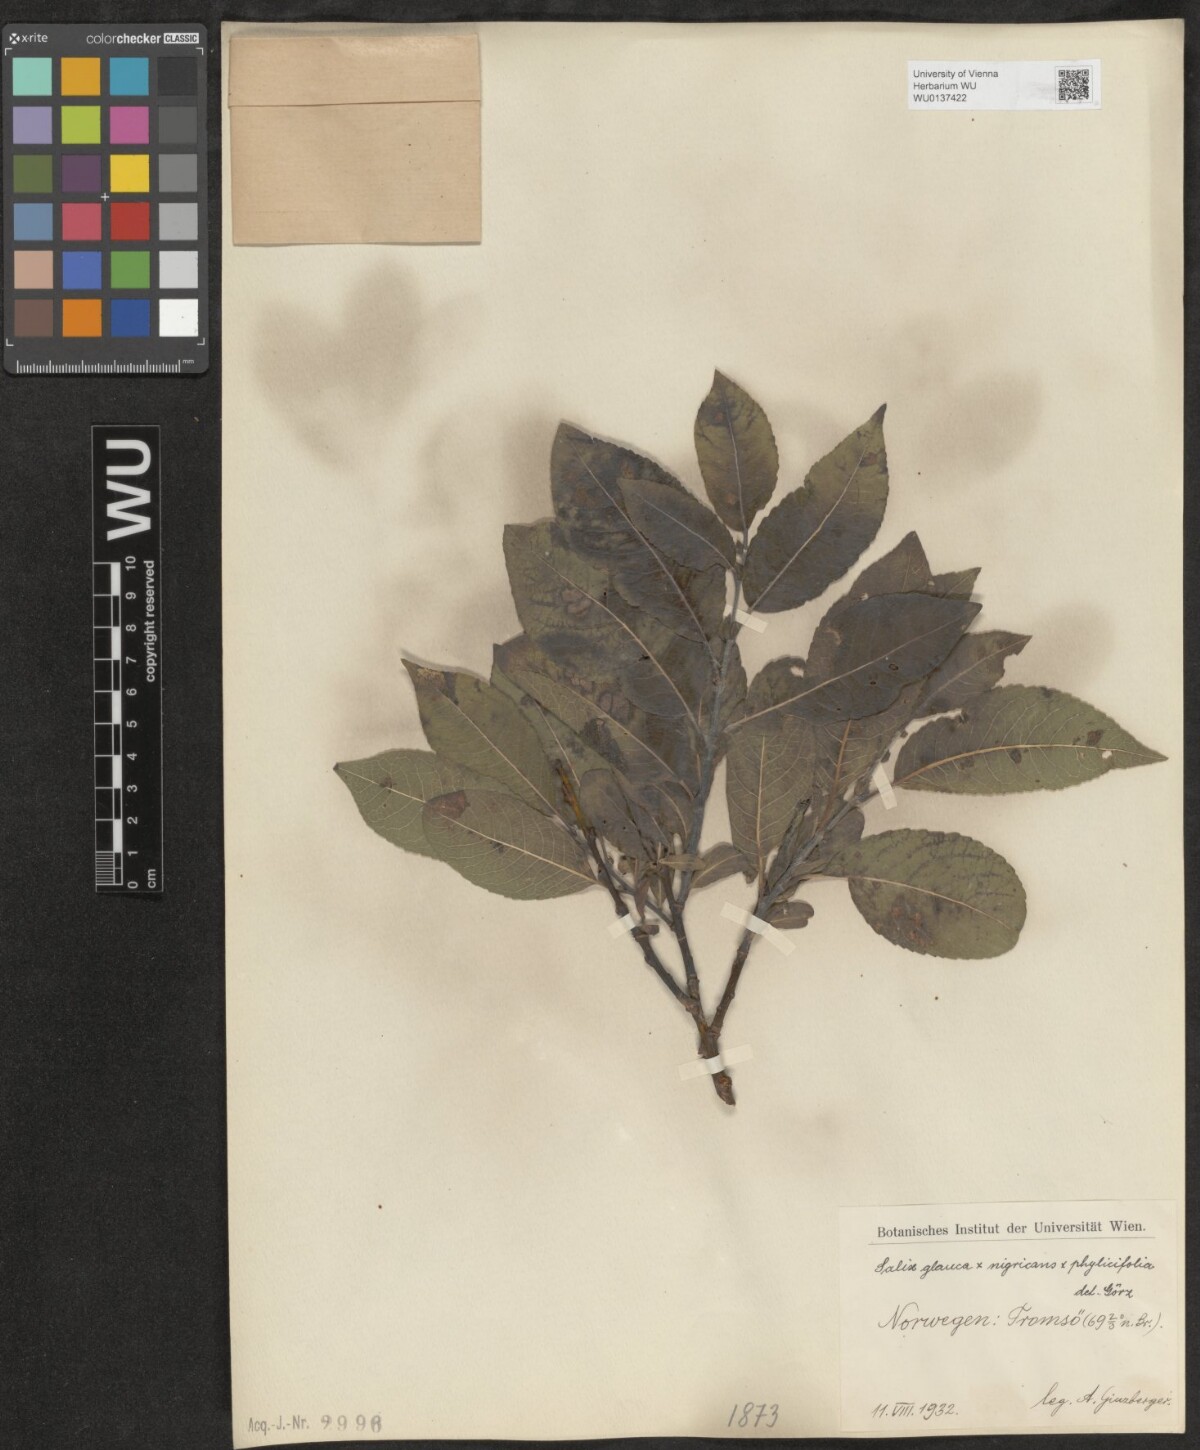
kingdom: Plantae
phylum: Tracheophyta
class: Magnoliopsida
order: Malpighiales
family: Salicaceae
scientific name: Salicaceae
